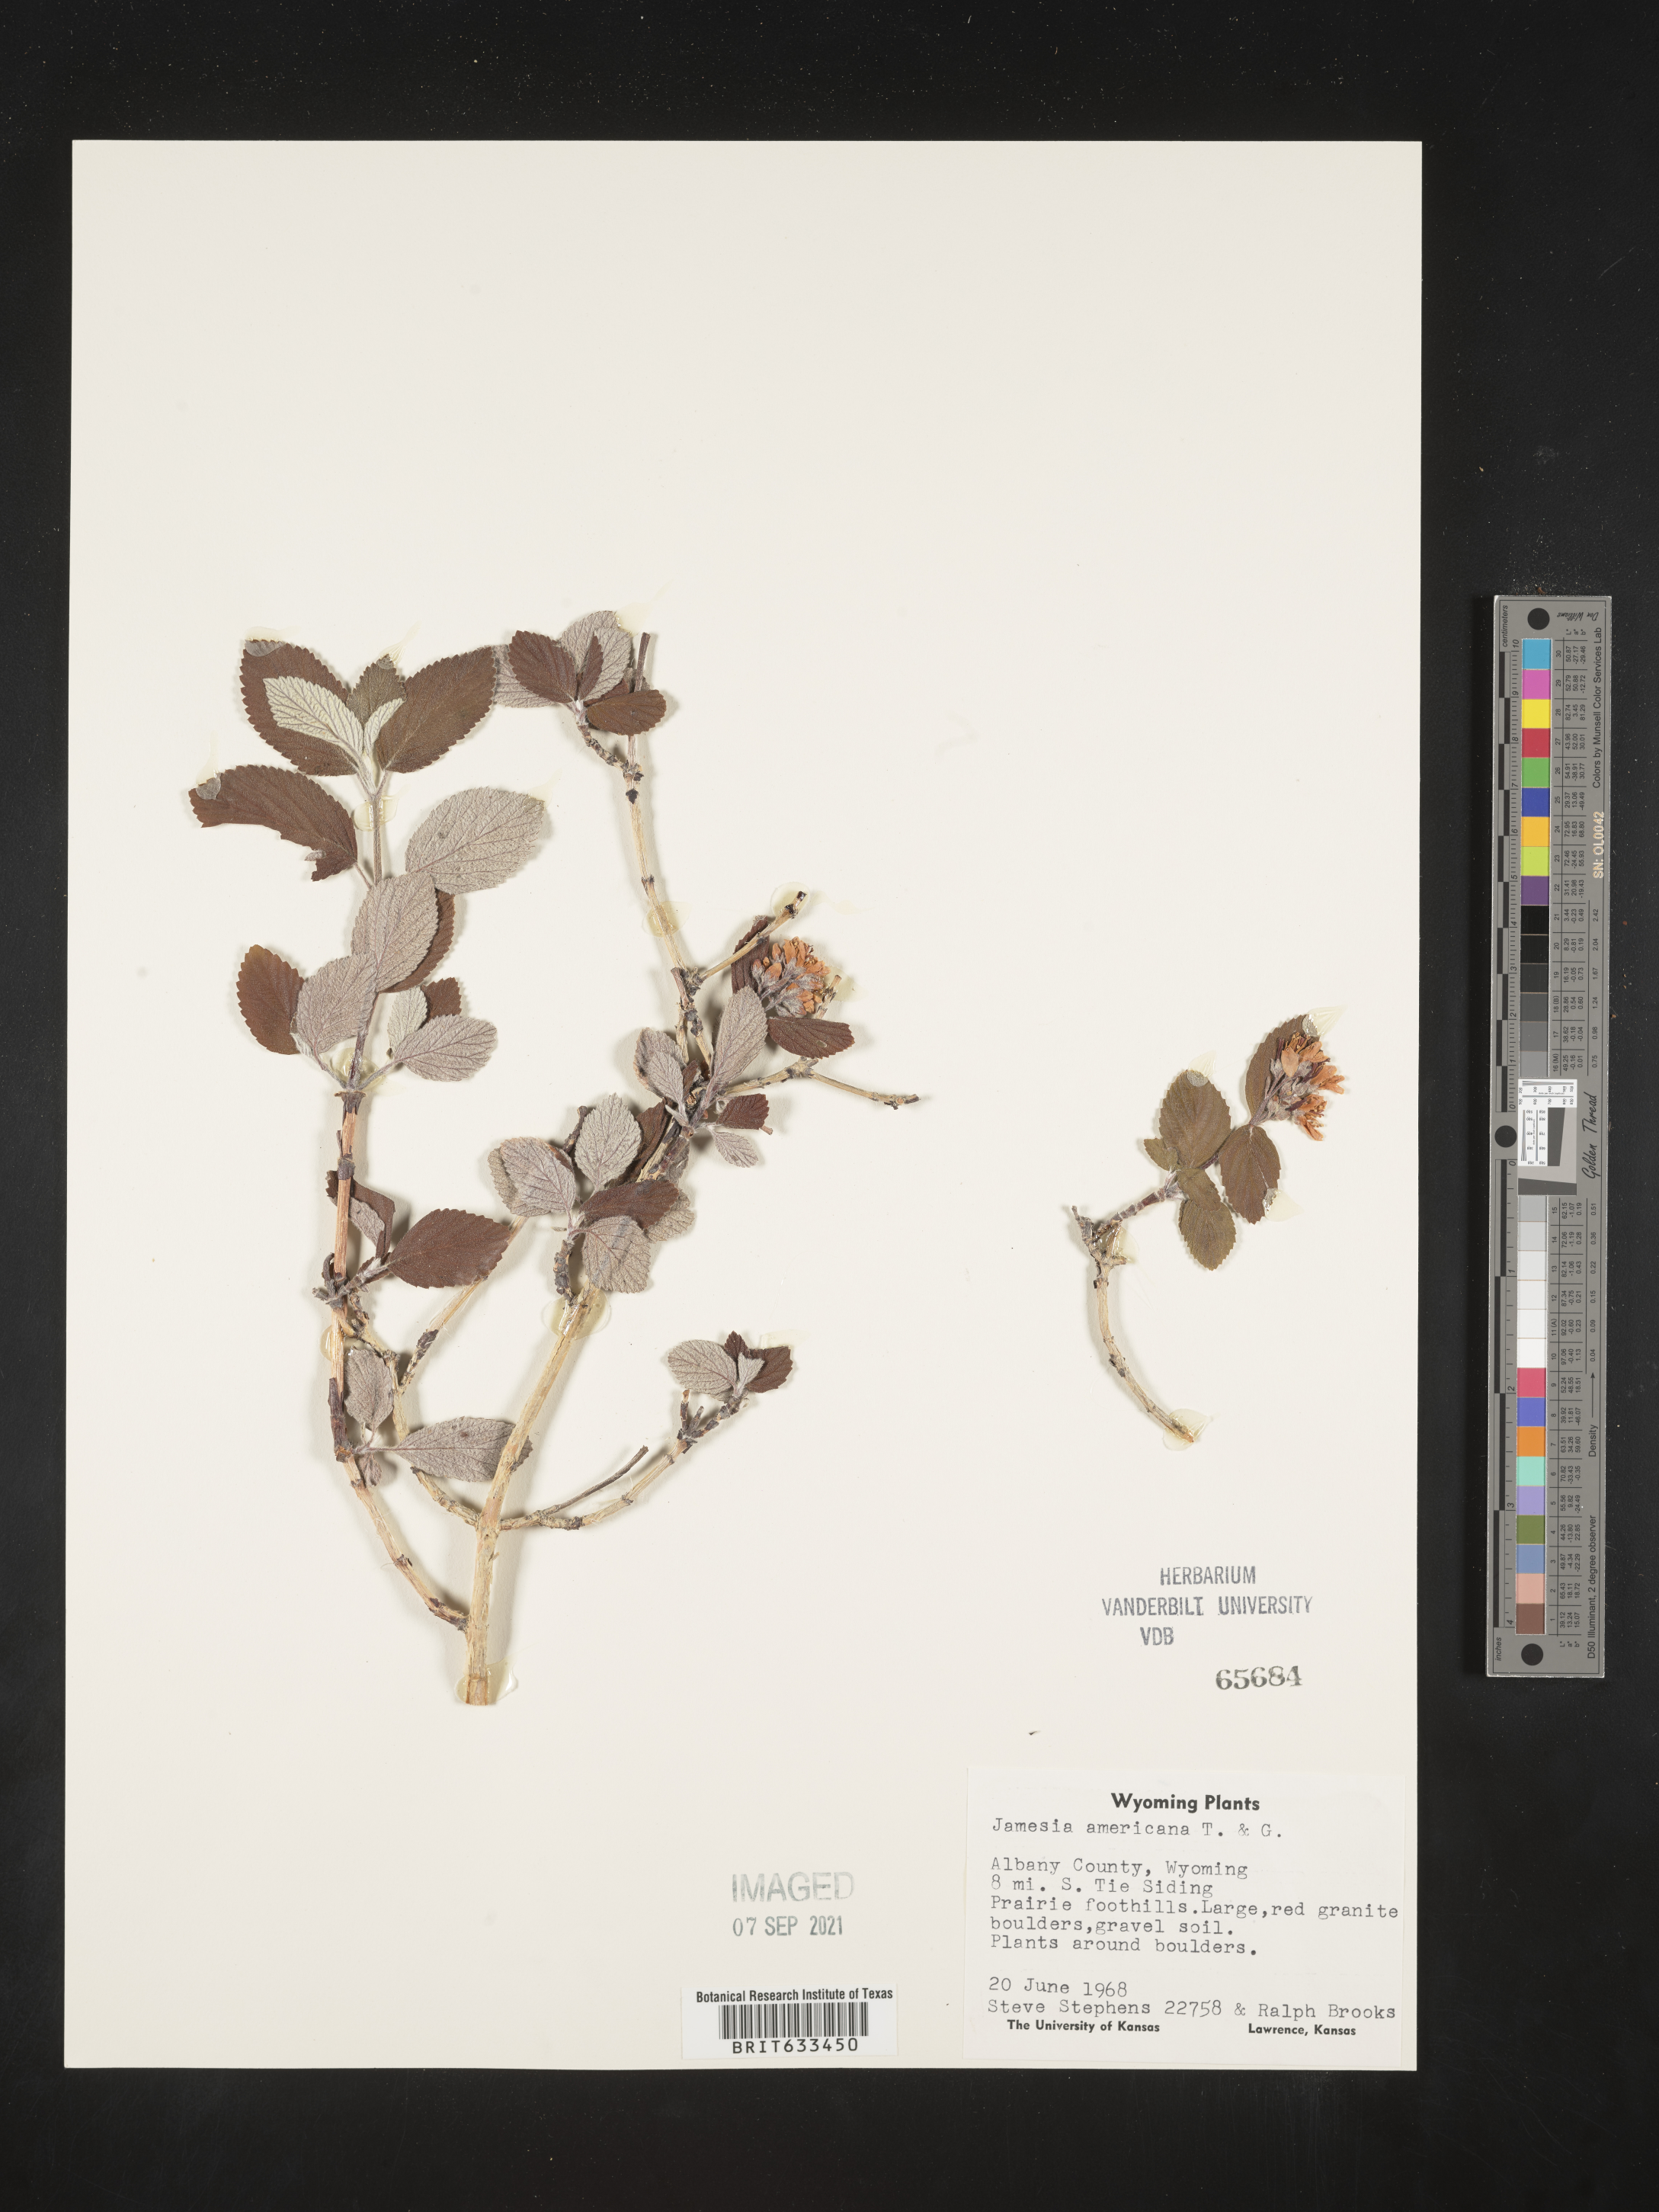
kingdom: Plantae
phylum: Tracheophyta
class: Magnoliopsida
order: Cornales
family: Hydrangeaceae
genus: Jamesia
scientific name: Jamesia americana
